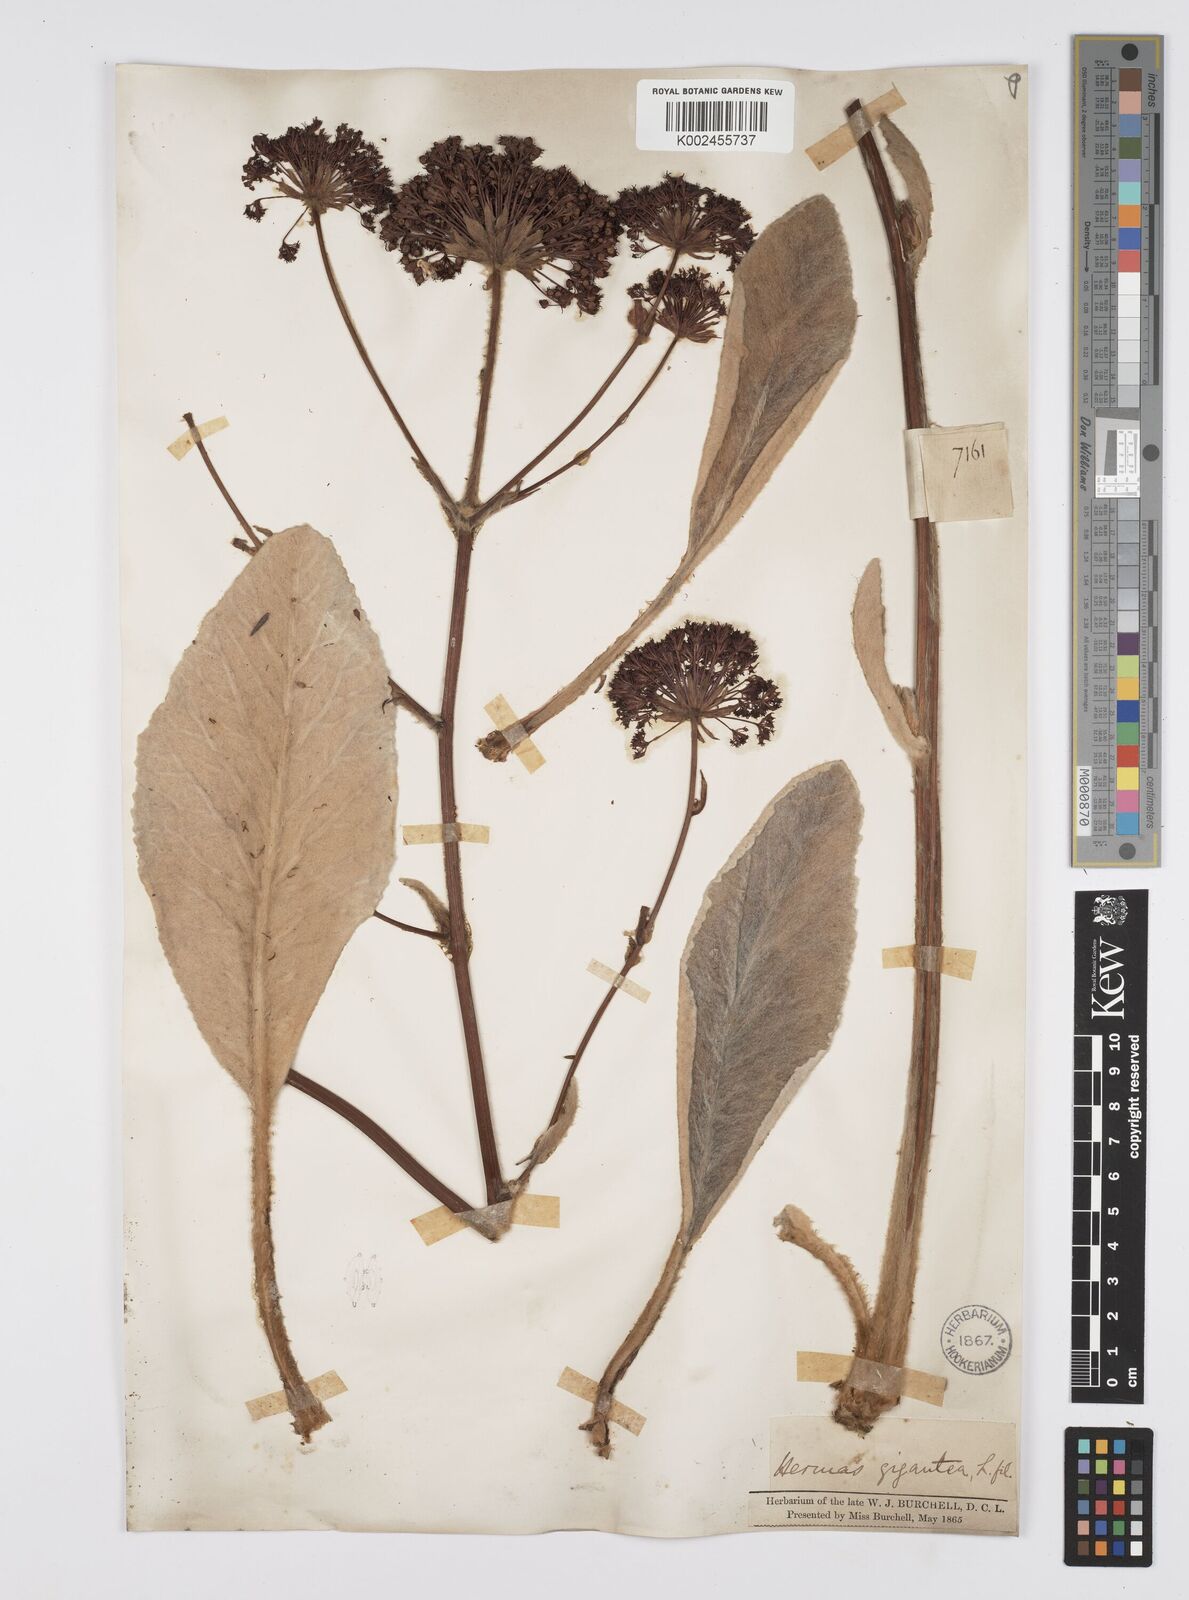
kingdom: Plantae
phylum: Tracheophyta
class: Magnoliopsida
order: Apiales
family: Apiaceae
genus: Hermas
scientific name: Hermas gigantea
